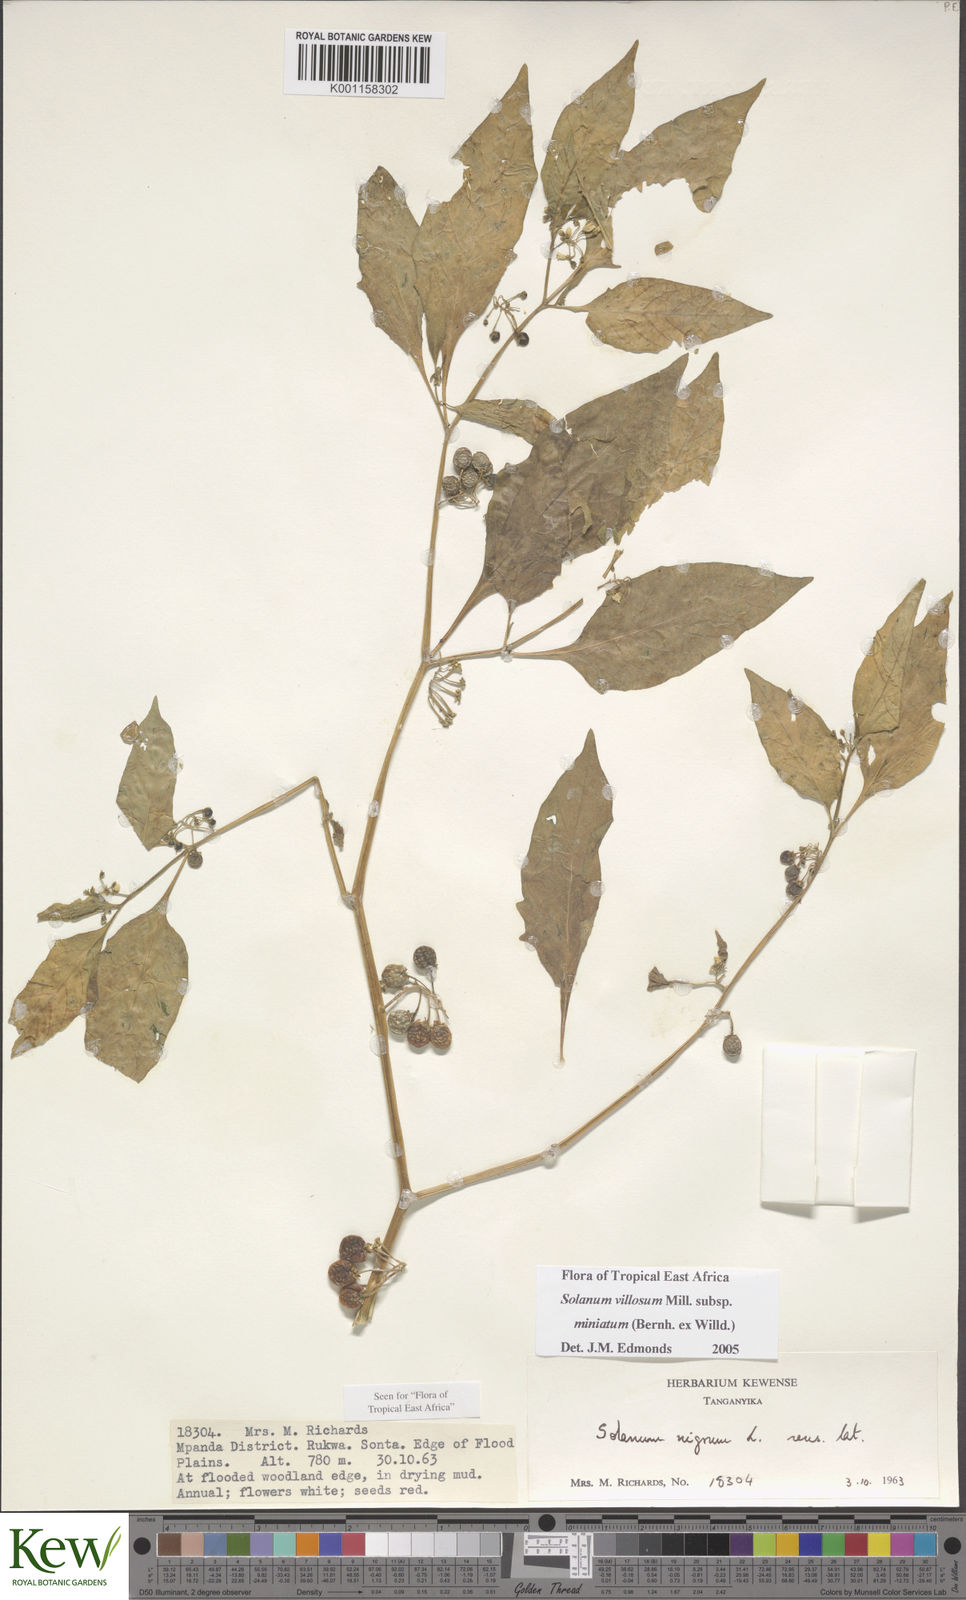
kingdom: Plantae
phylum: Tracheophyta
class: Magnoliopsida
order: Solanales
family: Solanaceae
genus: Solanum
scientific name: Solanum villosum
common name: Red nightshade
